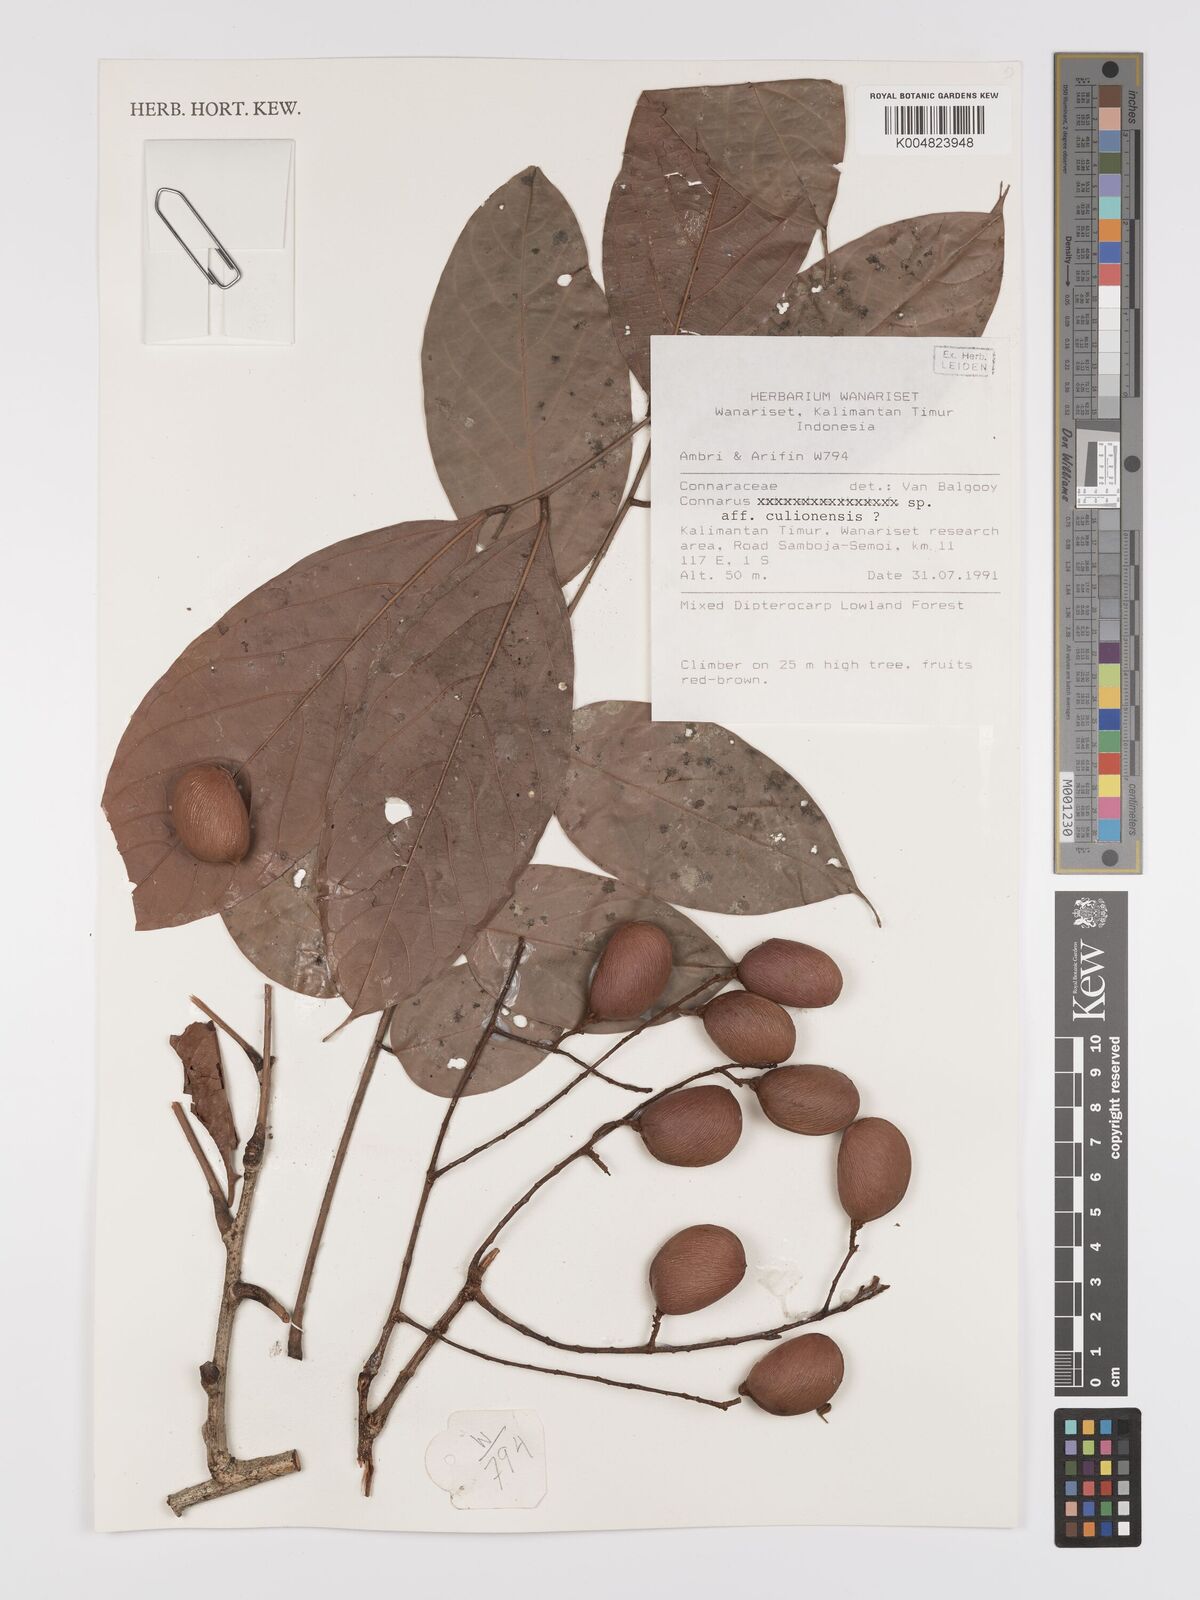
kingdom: Plantae
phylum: Tracheophyta
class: Magnoliopsida
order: Oxalidales
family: Connaraceae
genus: Connarus
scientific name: Connarus culionensis
